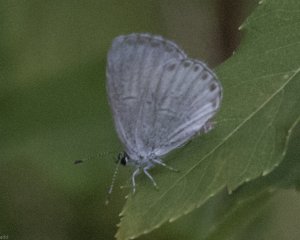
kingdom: Animalia
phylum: Arthropoda
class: Insecta
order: Lepidoptera
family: Lycaenidae
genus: Cyaniris
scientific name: Cyaniris neglecta
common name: Summer Azure
